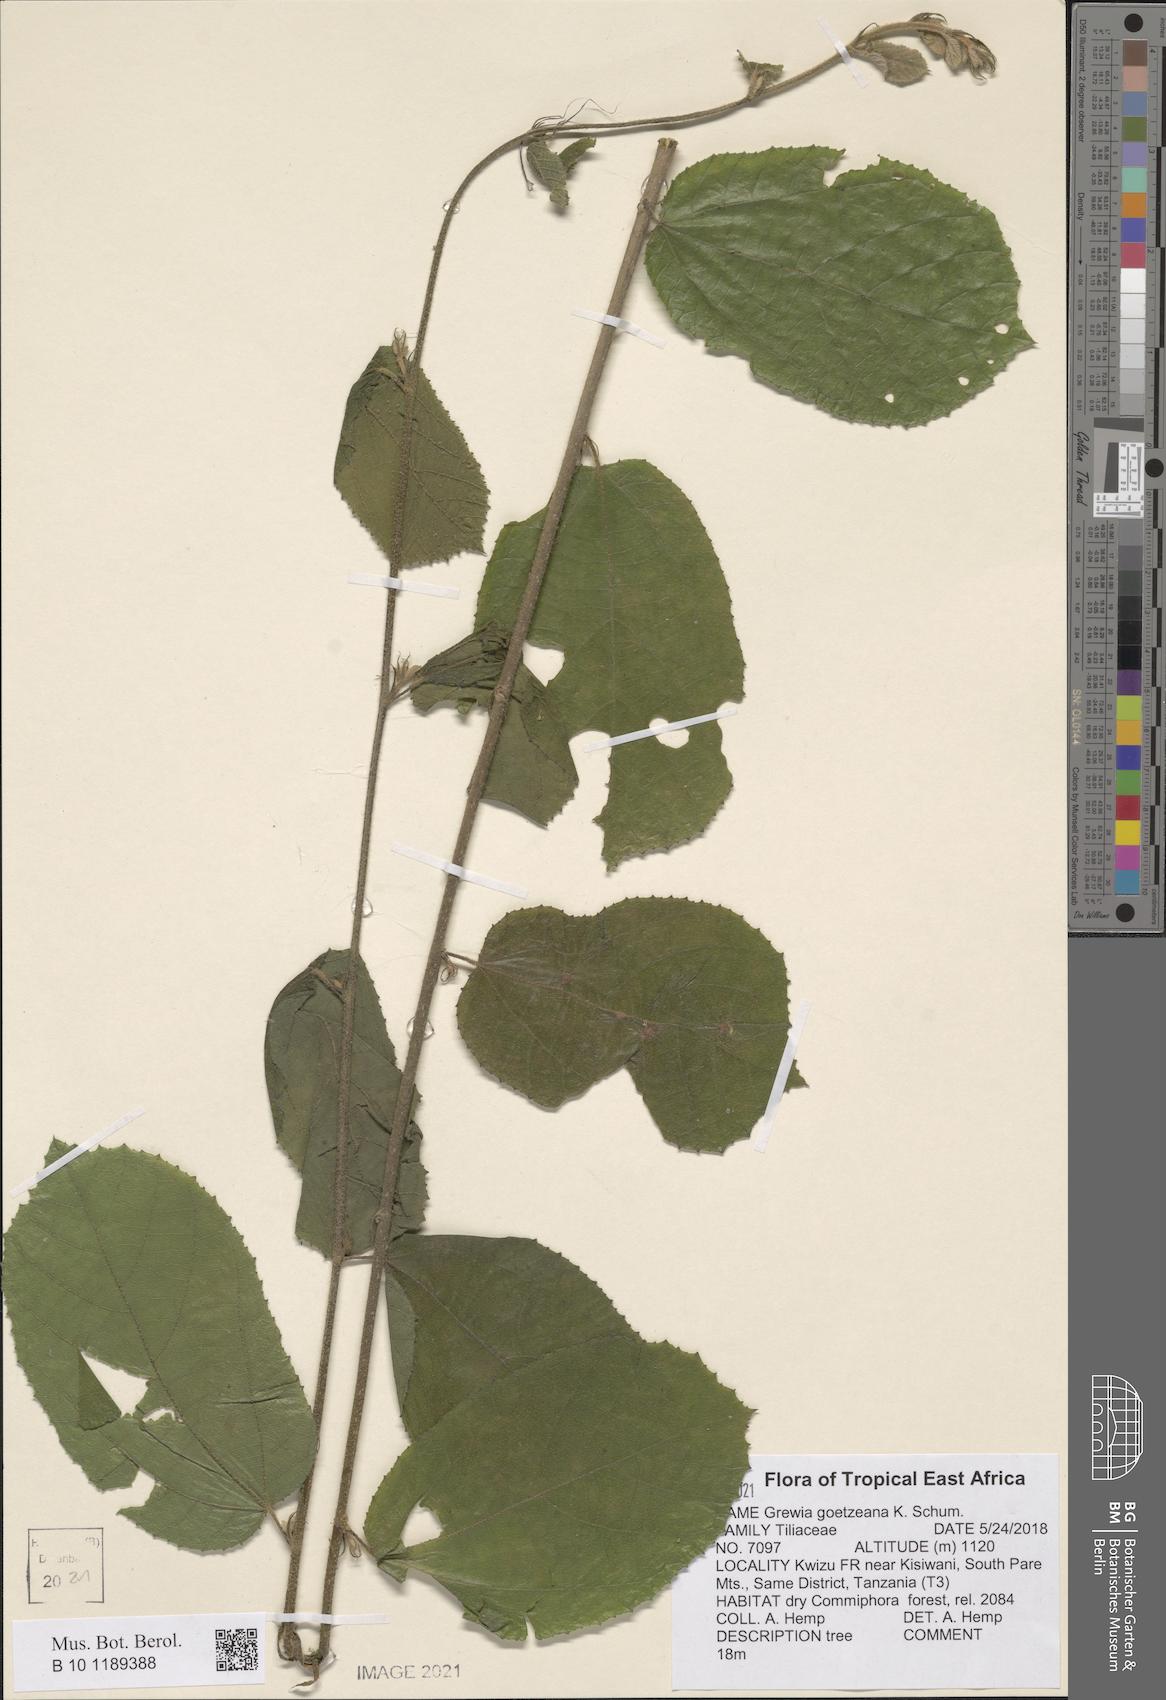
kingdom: Plantae
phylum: Tracheophyta
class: Magnoliopsida
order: Malvales
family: Malvaceae
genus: Grewia
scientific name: Grewia goetzeana
